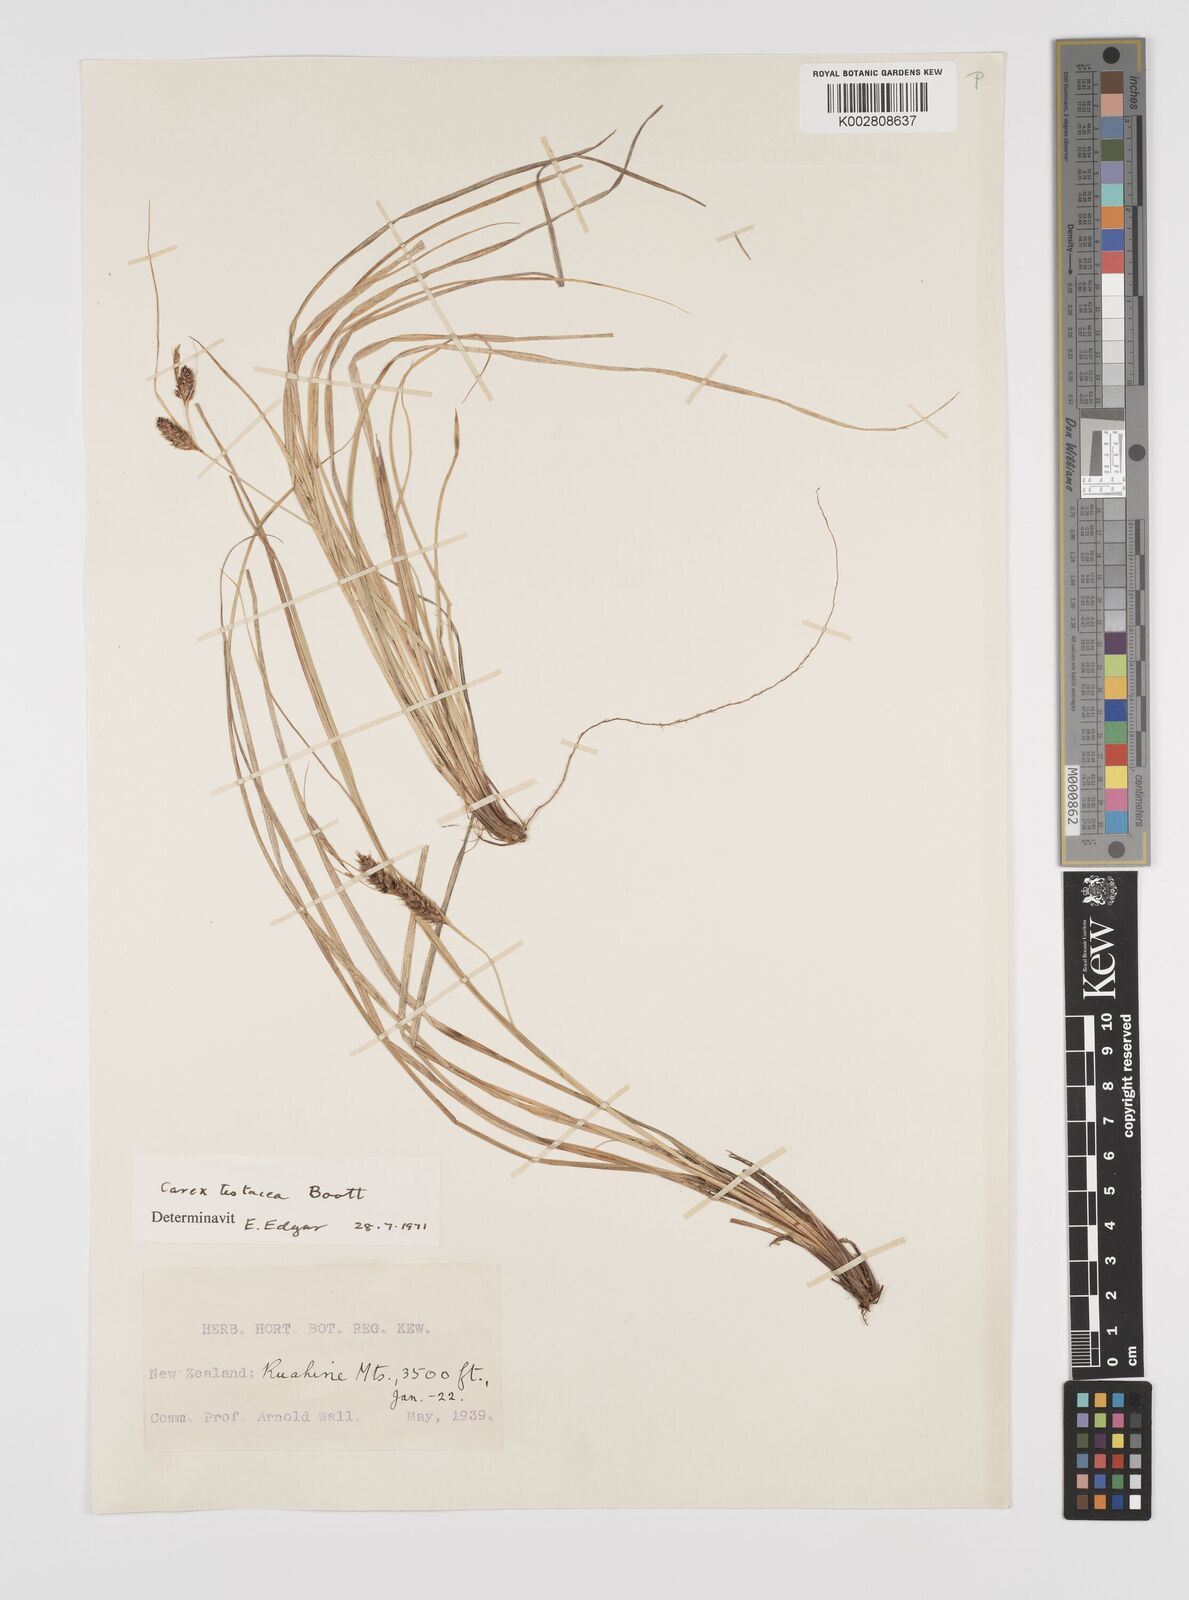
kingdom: Plantae
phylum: Tracheophyta
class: Liliopsida
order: Poales
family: Cyperaceae
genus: Carex
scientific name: Carex testacea
